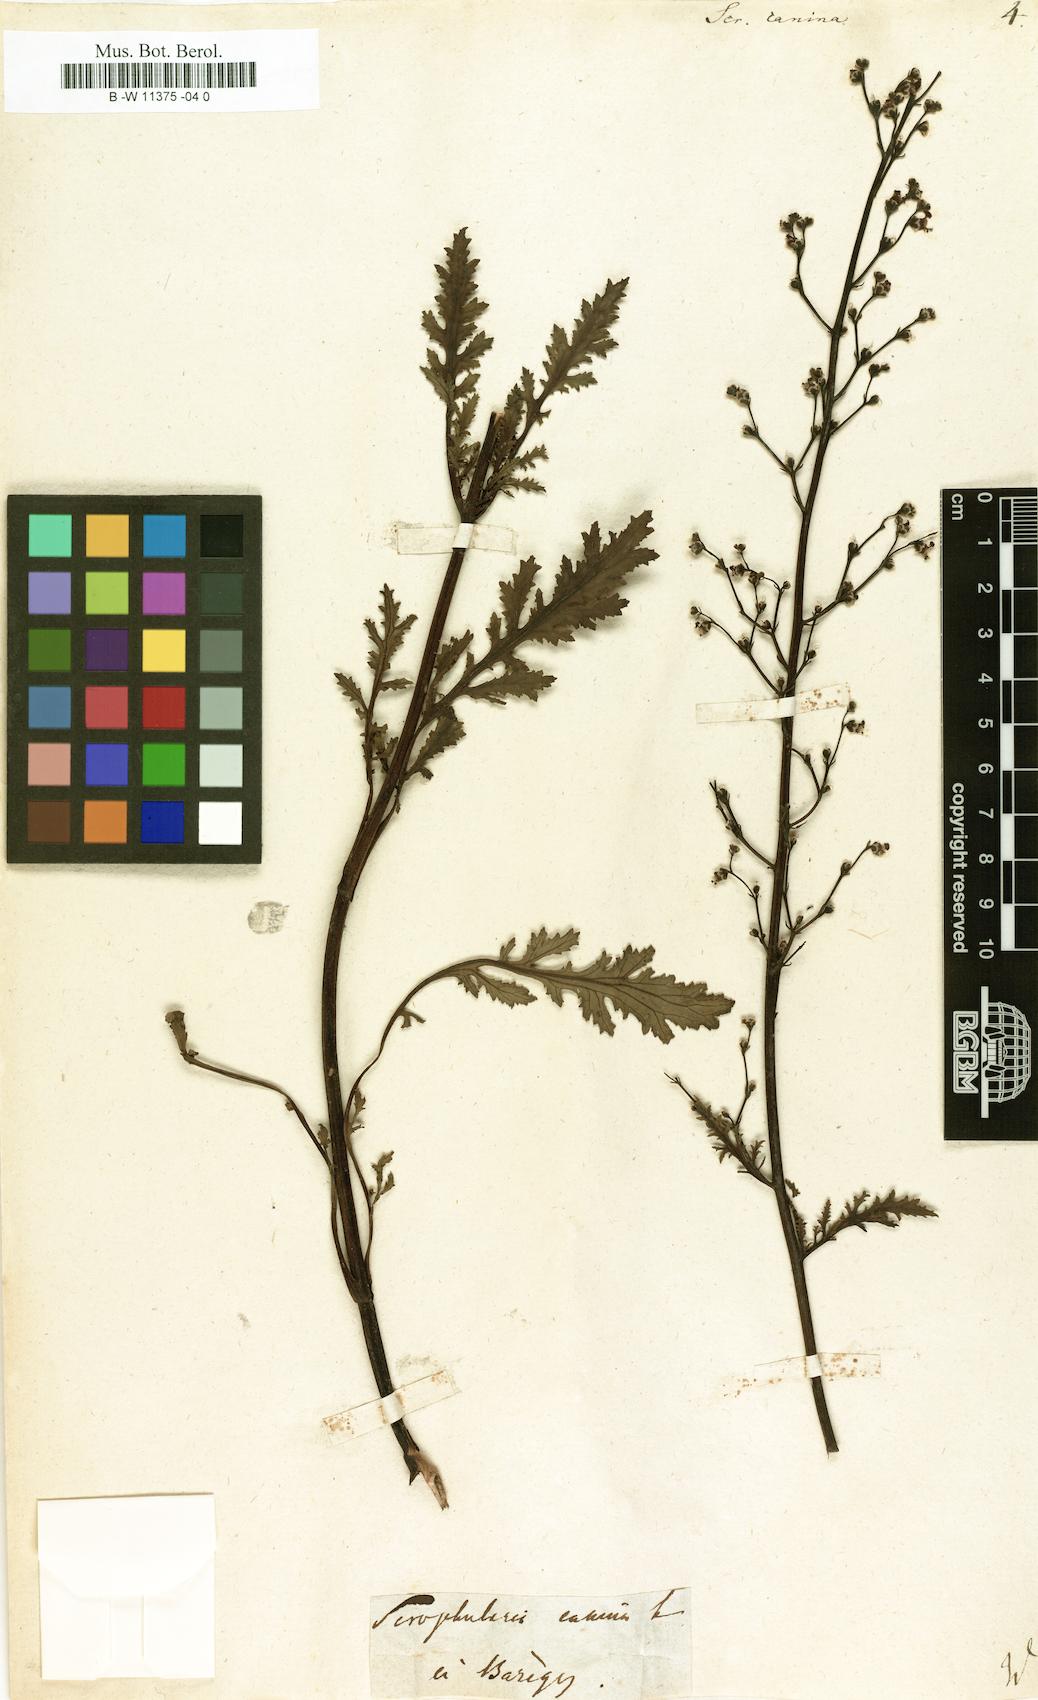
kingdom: Plantae
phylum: Tracheophyta
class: Magnoliopsida
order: Lamiales
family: Scrophulariaceae
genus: Scrophularia
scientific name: Scrophularia canina
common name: French figwort
